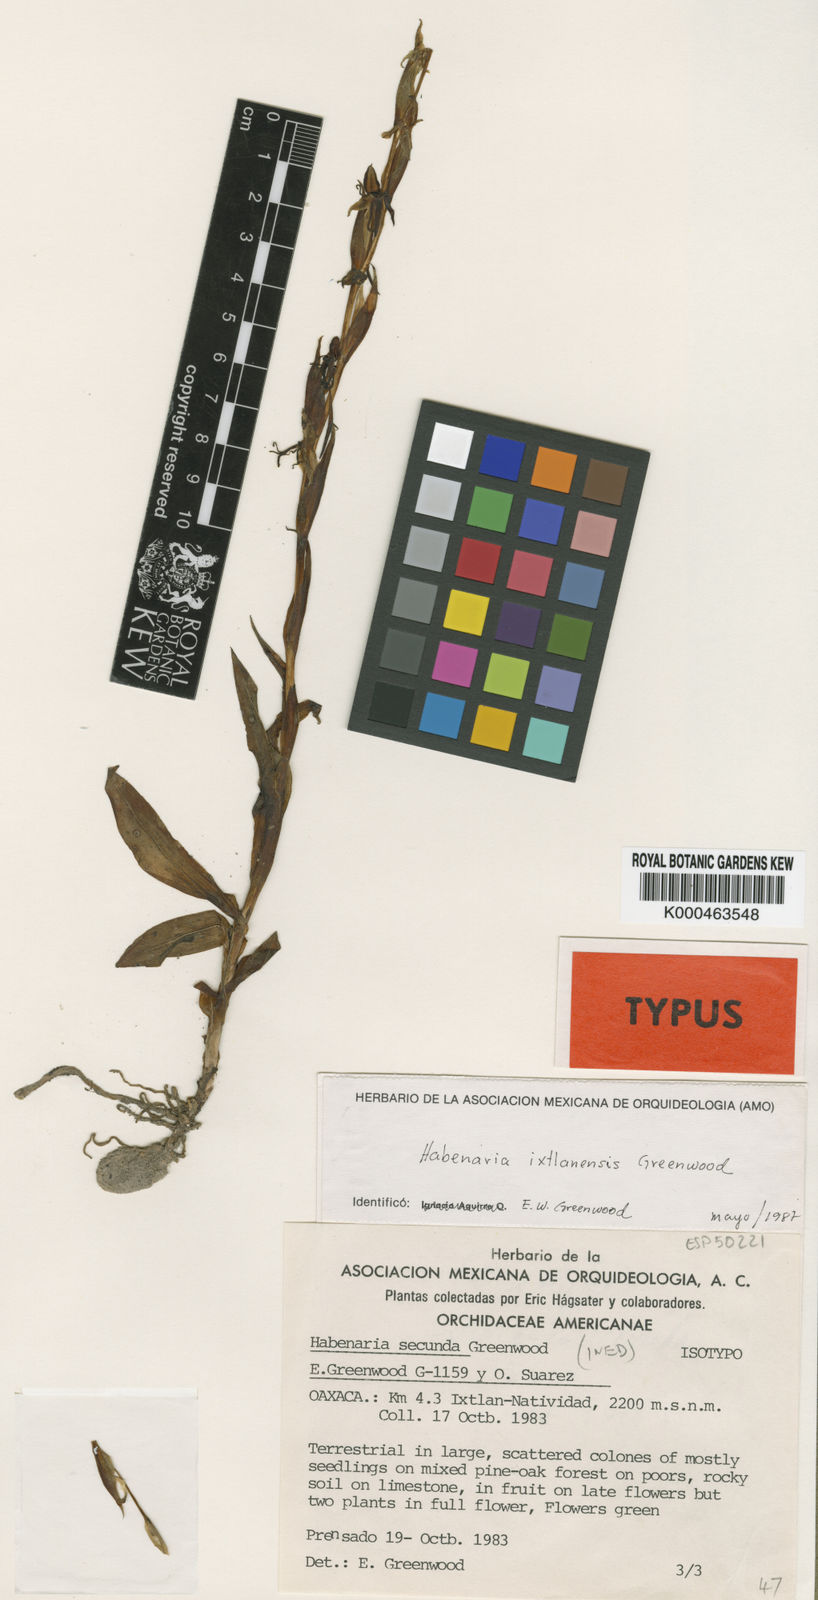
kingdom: Plantae
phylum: Tracheophyta
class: Liliopsida
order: Asparagales
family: Orchidaceae
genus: Habenaria
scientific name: Habenaria ixtlanensis
